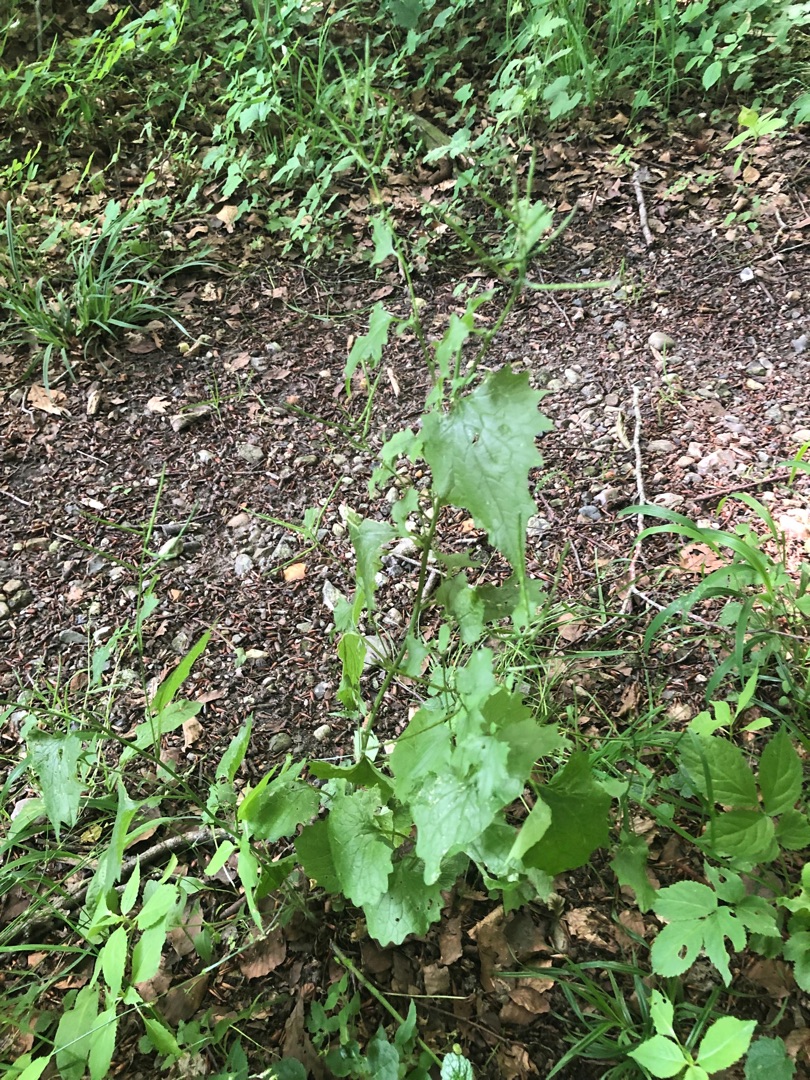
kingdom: Plantae
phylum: Tracheophyta
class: Magnoliopsida
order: Brassicales
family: Brassicaceae
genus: Alliaria
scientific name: Alliaria petiolata
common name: Løgkarse
